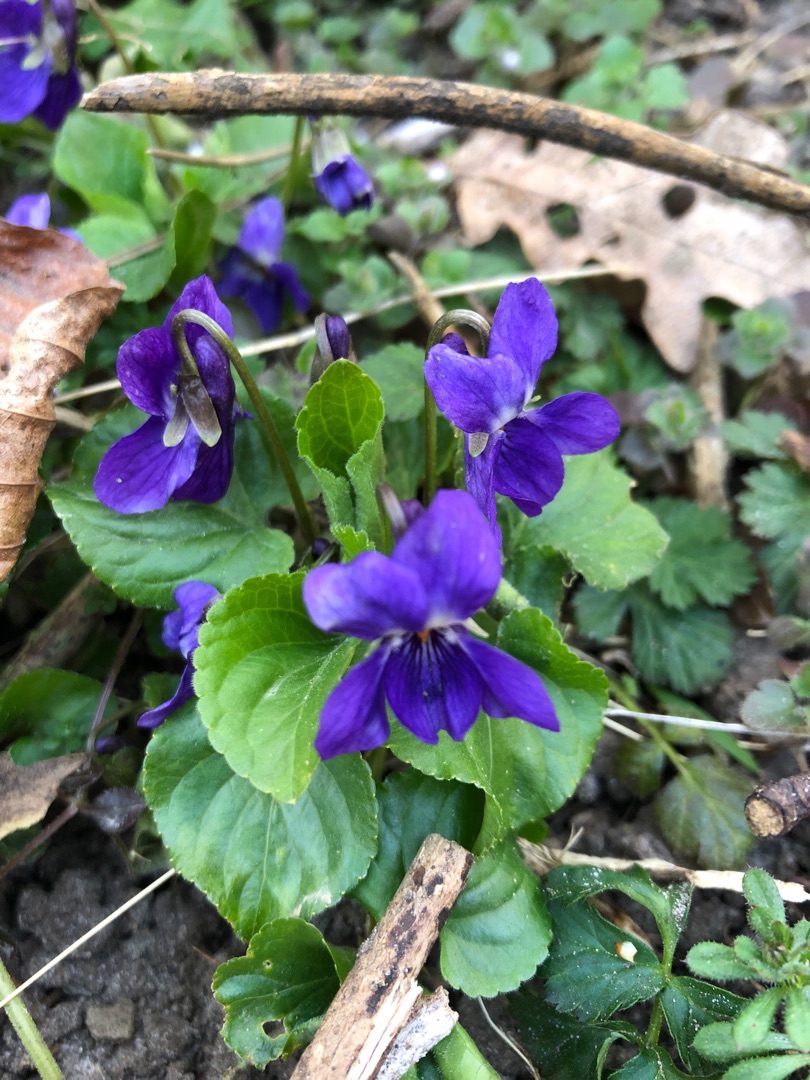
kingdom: Plantae
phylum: Tracheophyta
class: Magnoliopsida
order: Malpighiales
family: Violaceae
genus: Viola
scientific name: Viola odorata
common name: Marts-viol
